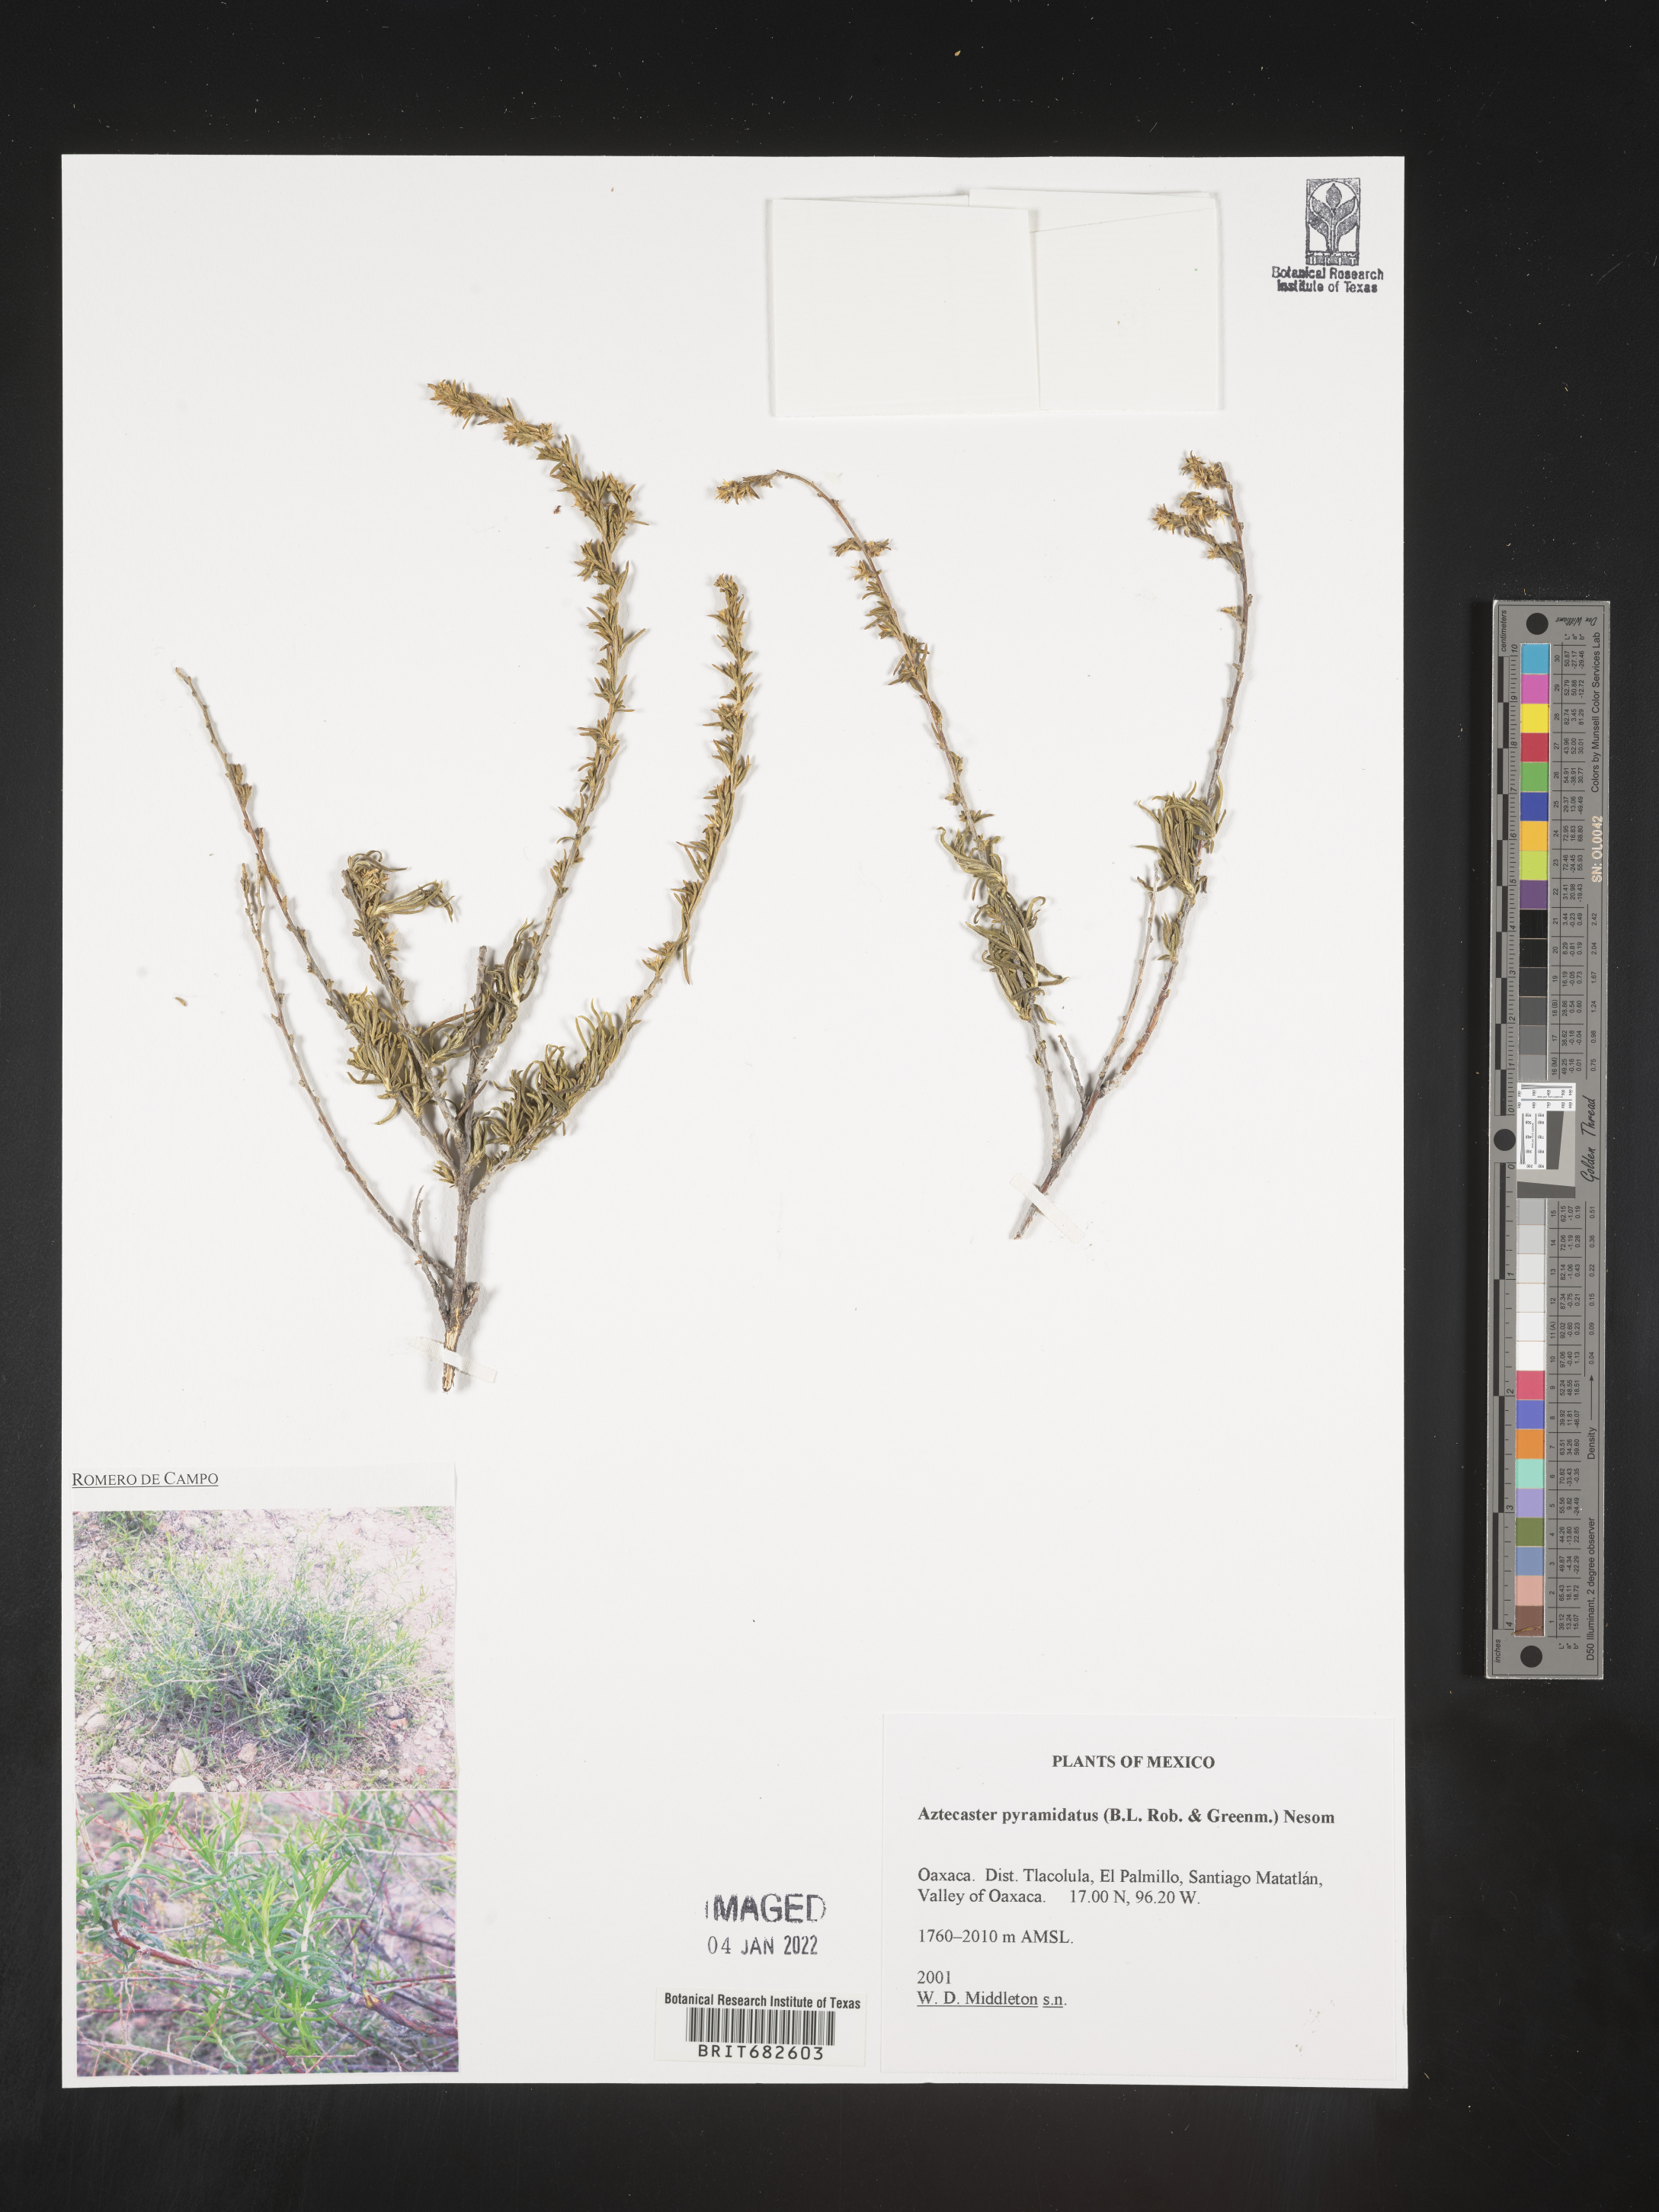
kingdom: Plantae
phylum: Tracheophyta
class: Magnoliopsida
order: Asterales
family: Asteraceae
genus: Aztecaster
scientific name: Aztecaster
